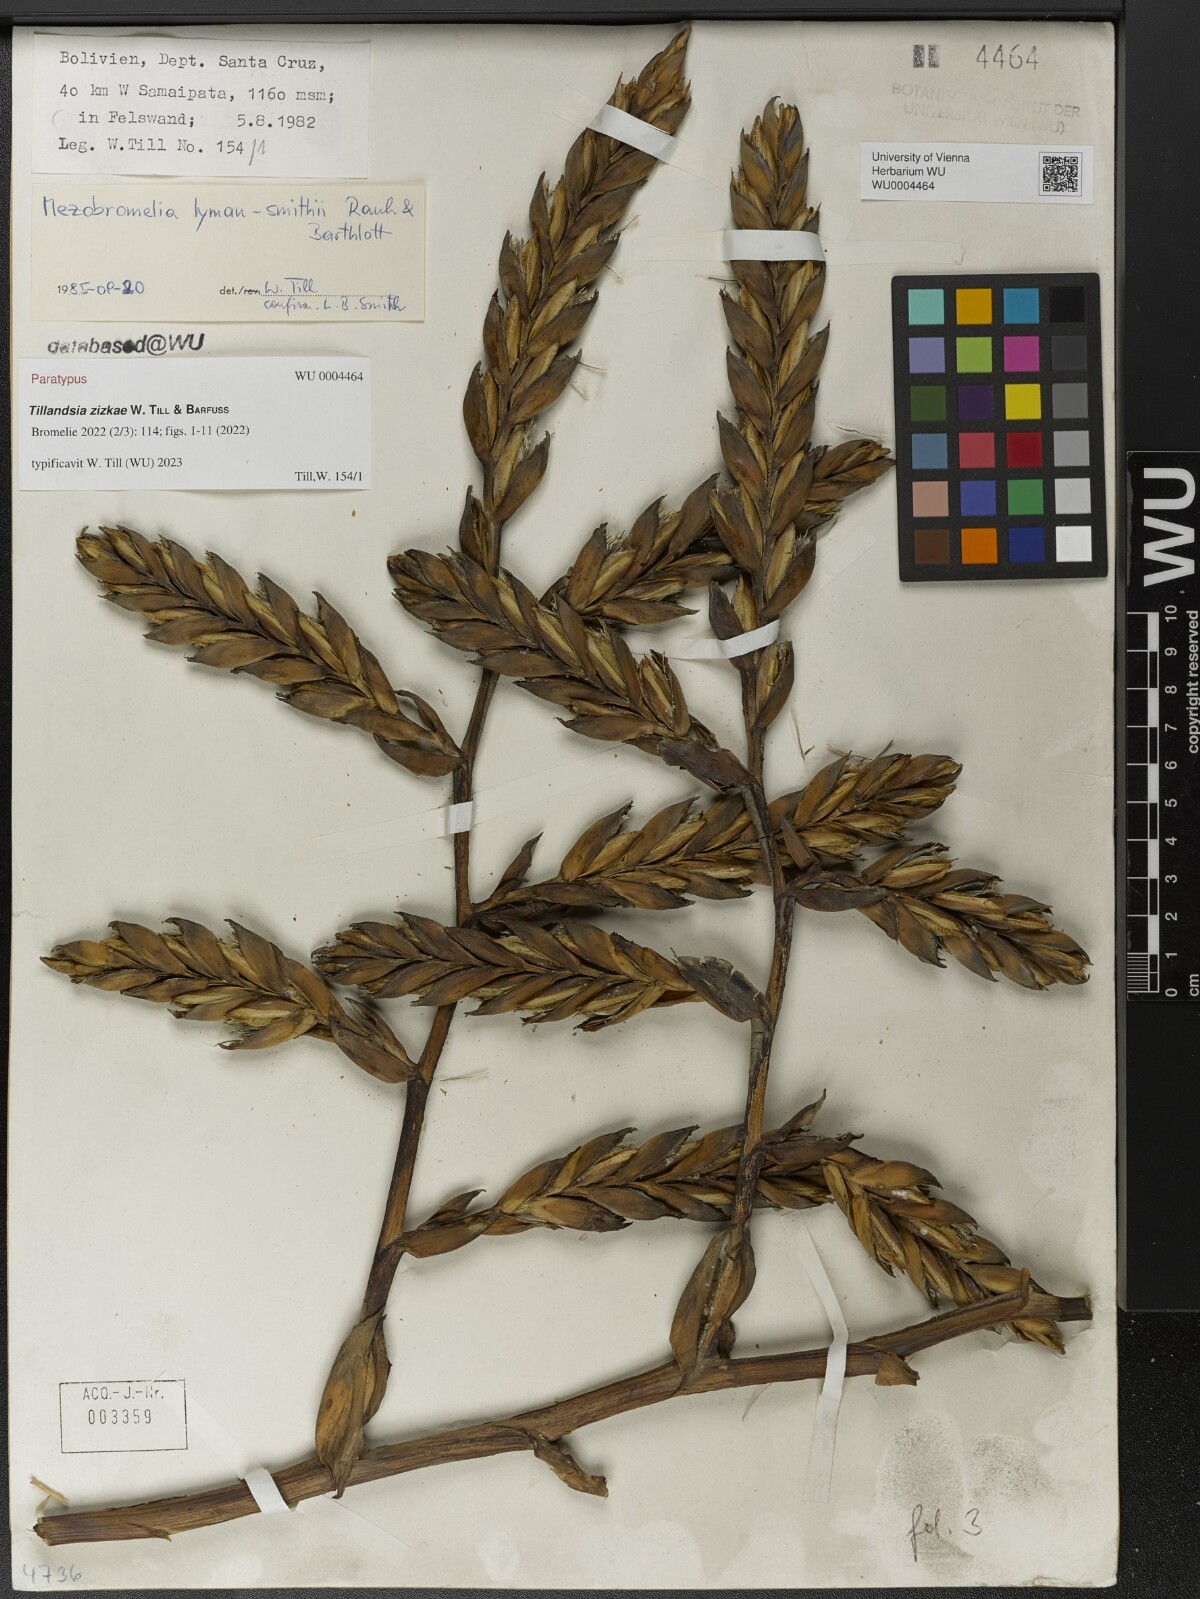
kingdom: Plantae
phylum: Tracheophyta
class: Liliopsida
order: Poales
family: Bromeliaceae
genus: Tillandsia
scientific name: Tillandsia
